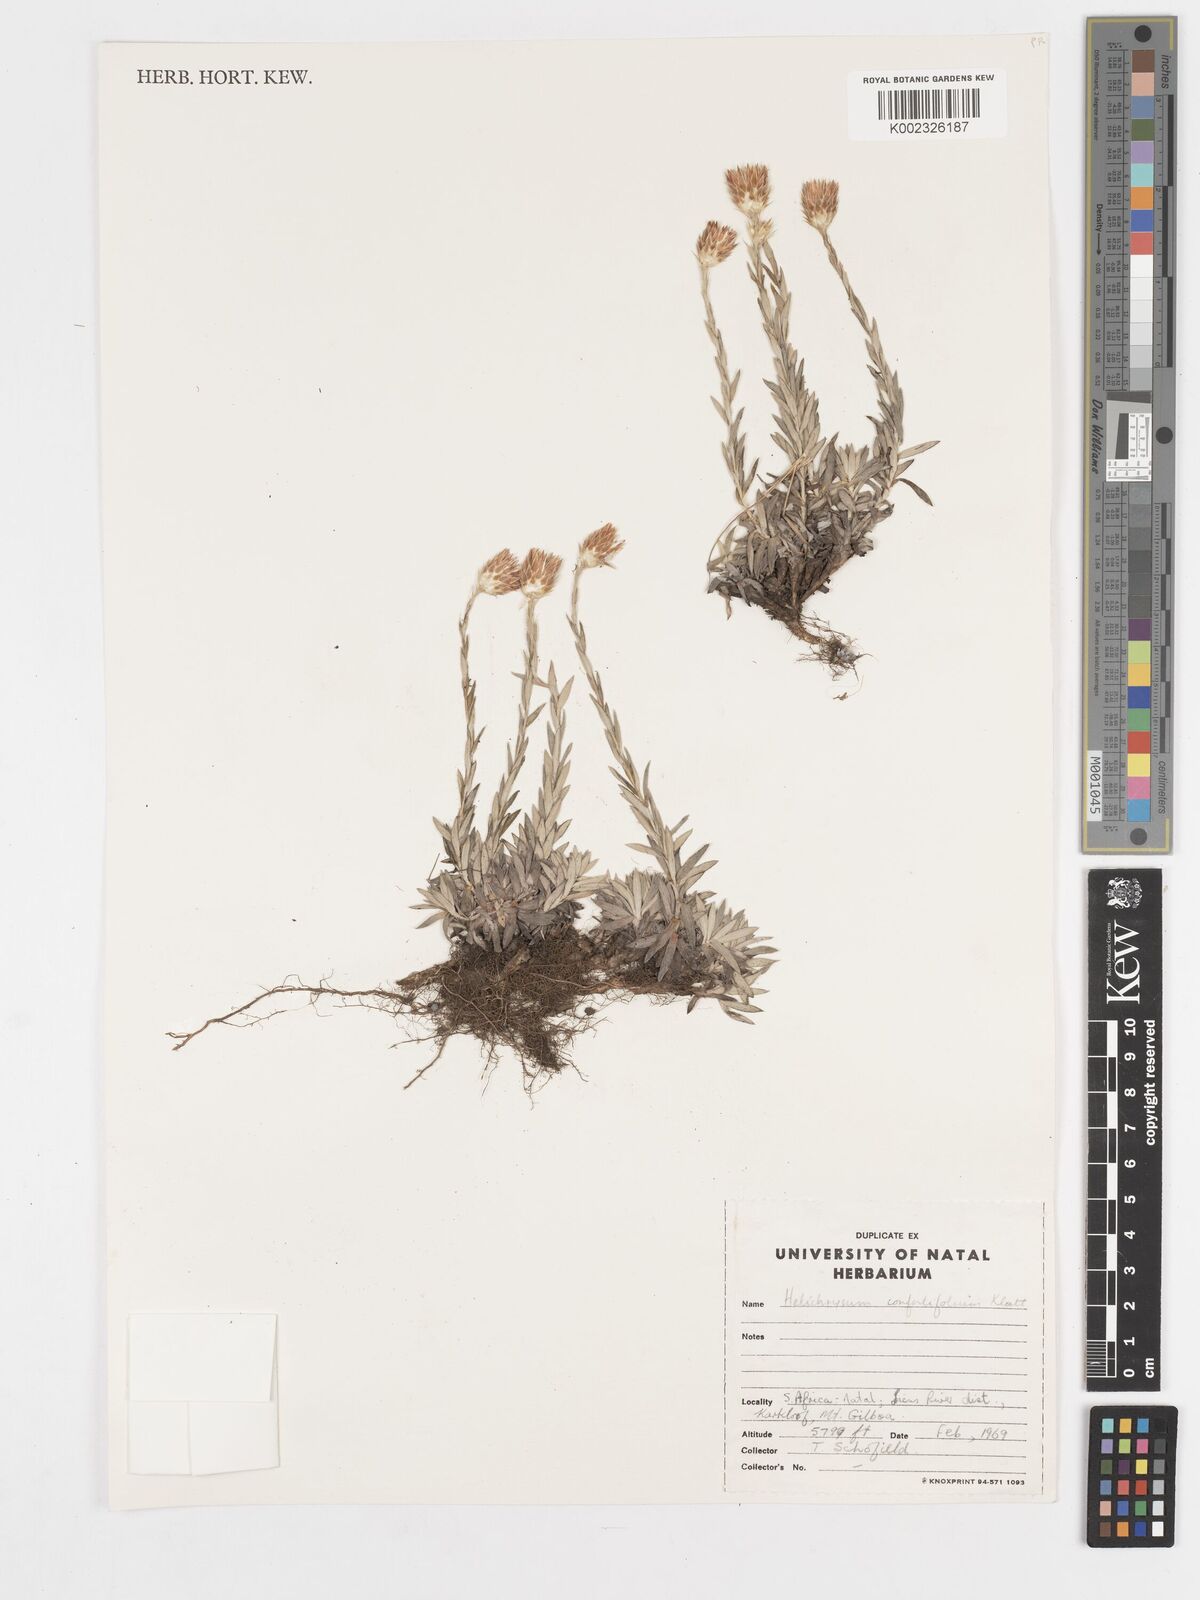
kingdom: Plantae
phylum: Tracheophyta
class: Magnoliopsida
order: Asterales
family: Asteraceae
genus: Helichrysum
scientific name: Helichrysum confertifolium
